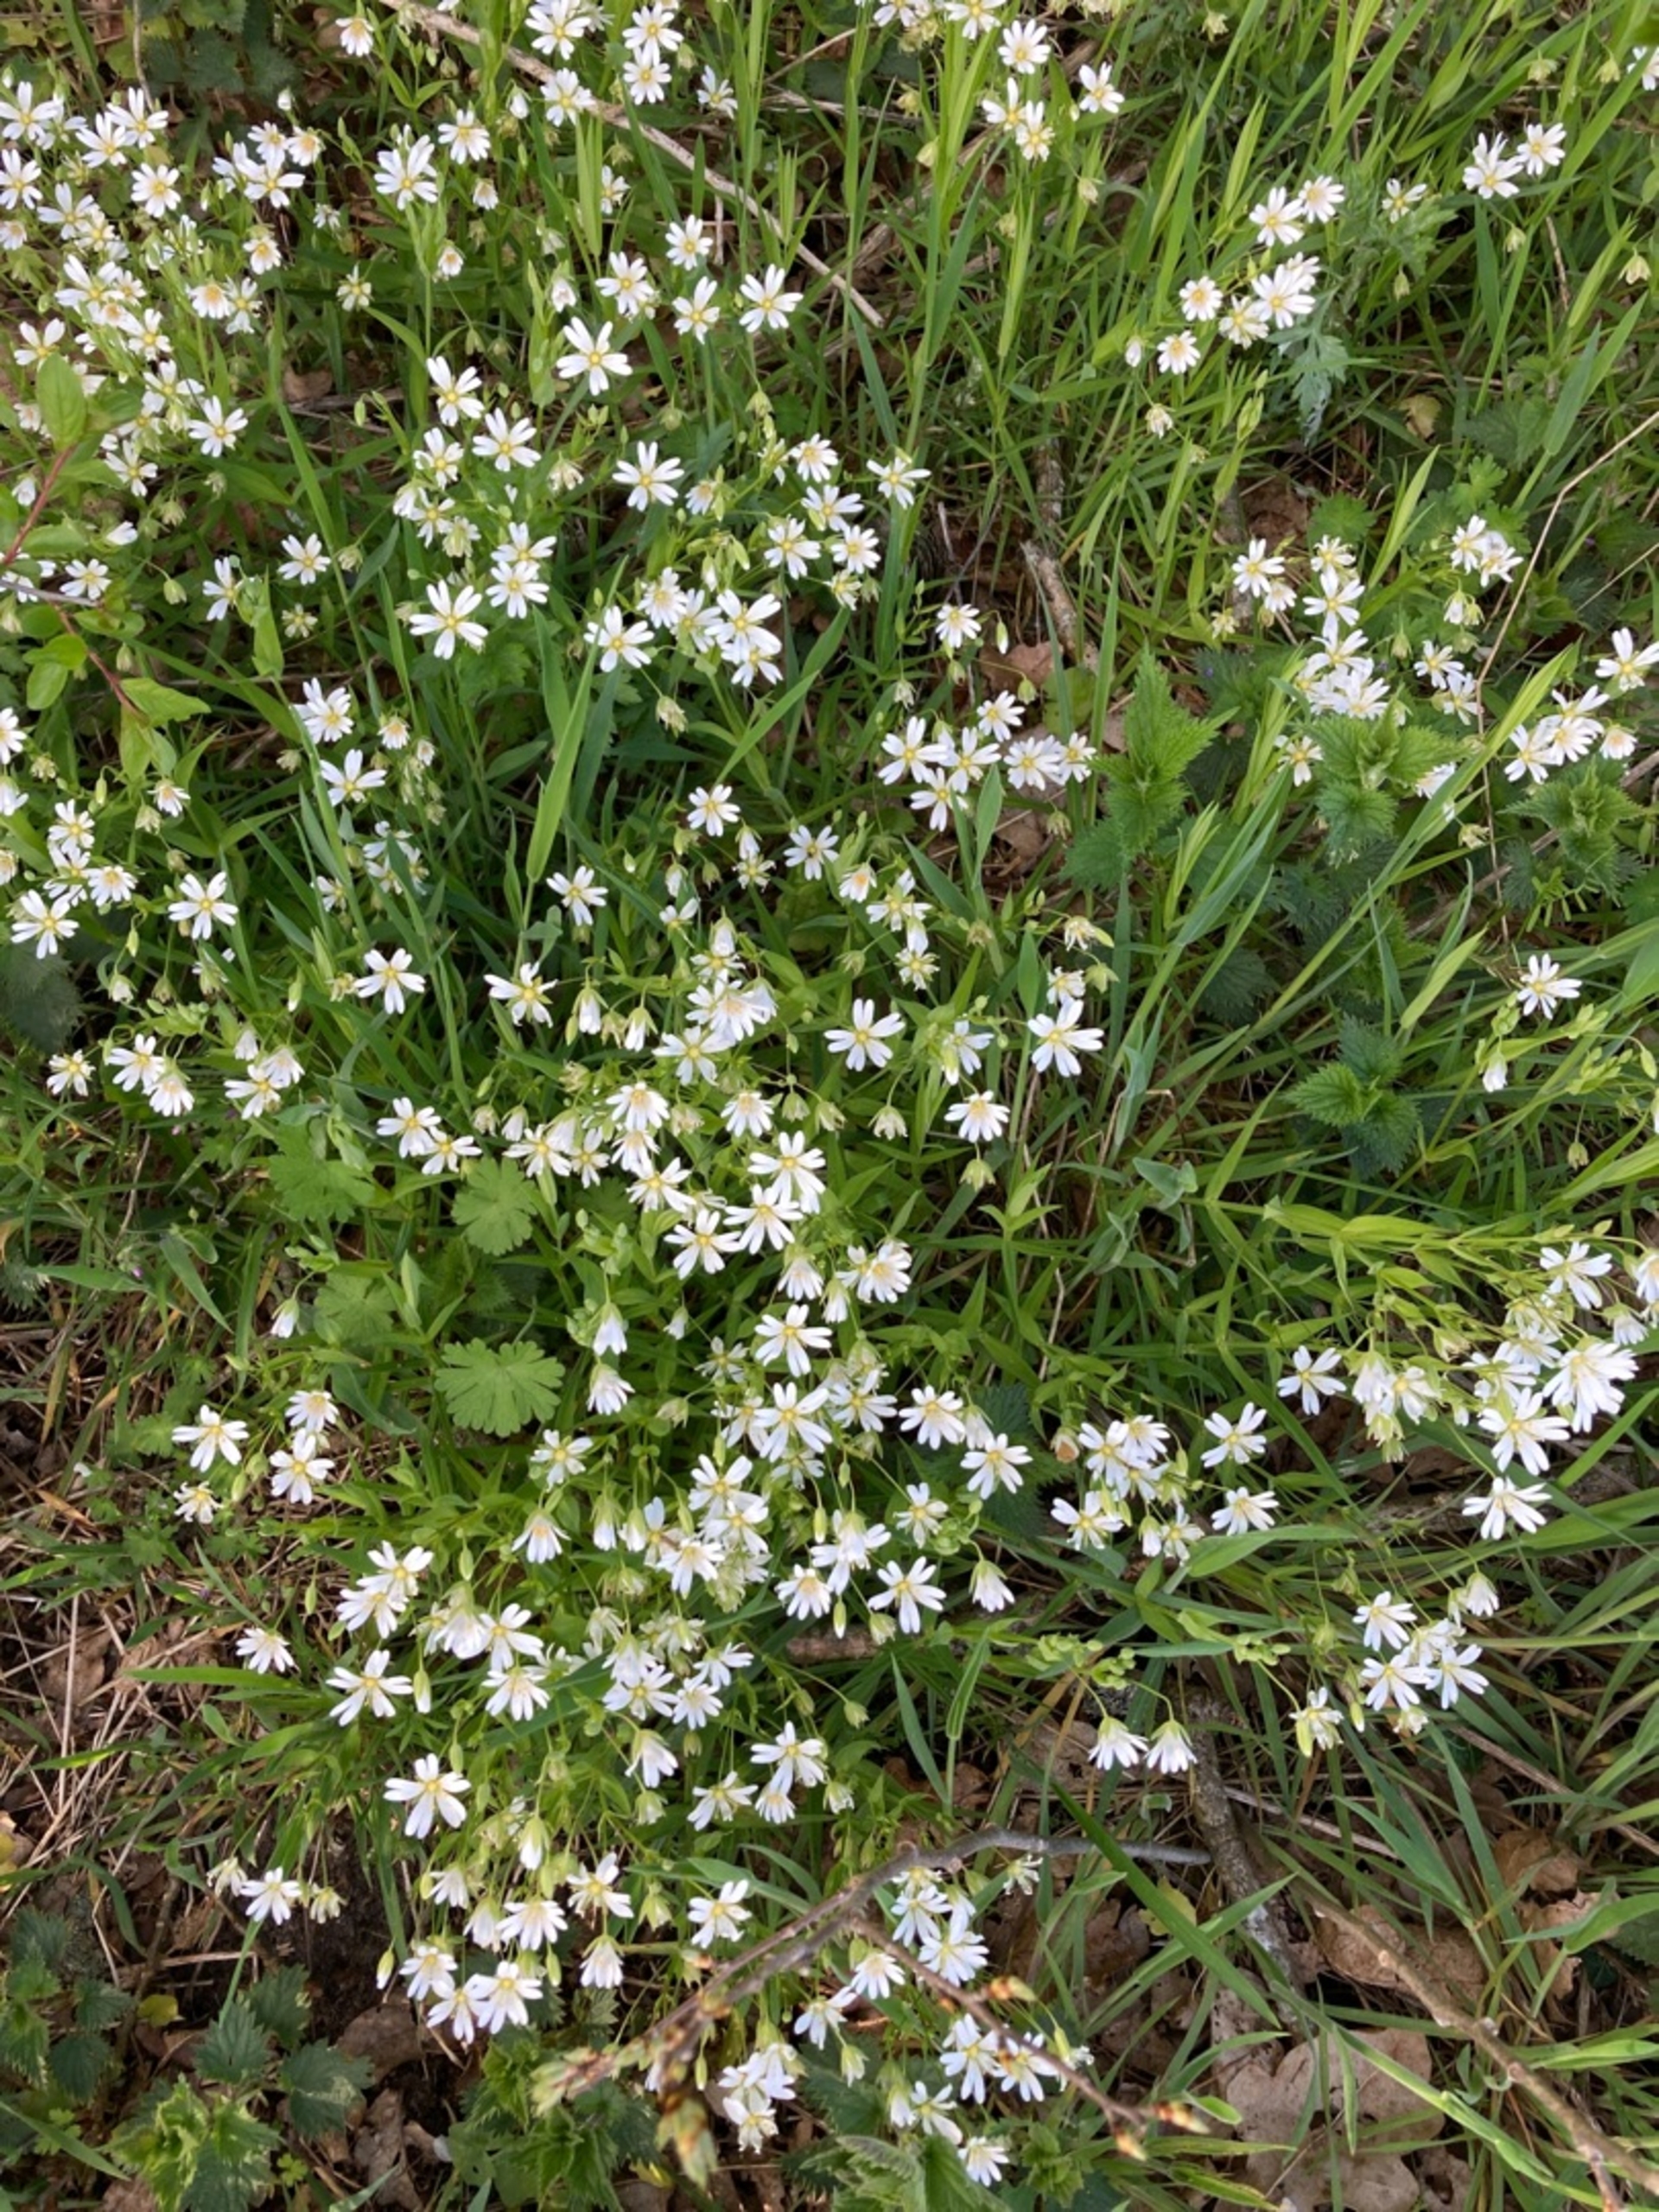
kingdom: Plantae
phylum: Tracheophyta
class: Magnoliopsida
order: Caryophyllales
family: Caryophyllaceae
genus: Rabelera
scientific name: Rabelera holostea
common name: Stor fladstjerne
